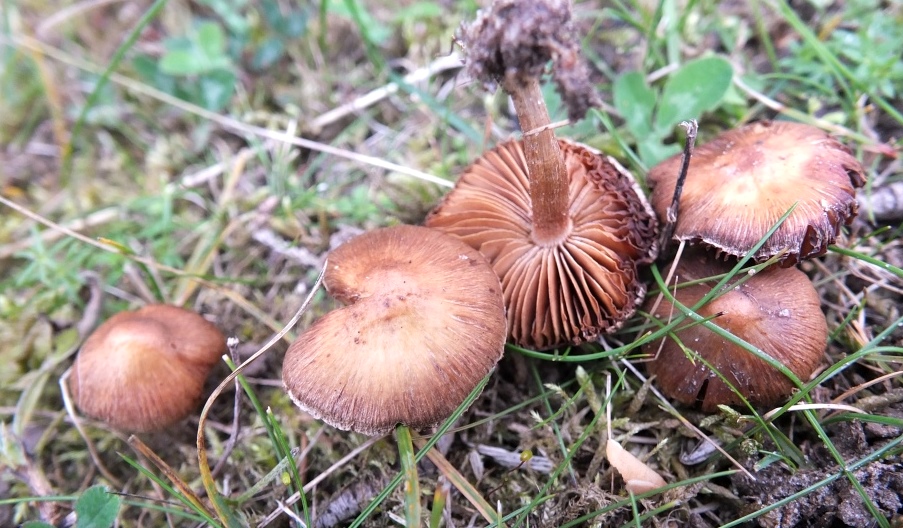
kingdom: Fungi
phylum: Basidiomycota
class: Agaricomycetes
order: Agaricales
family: Inocybaceae
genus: Inocybe
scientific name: Inocybe nitidiuscula
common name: skinnende trævlhat
